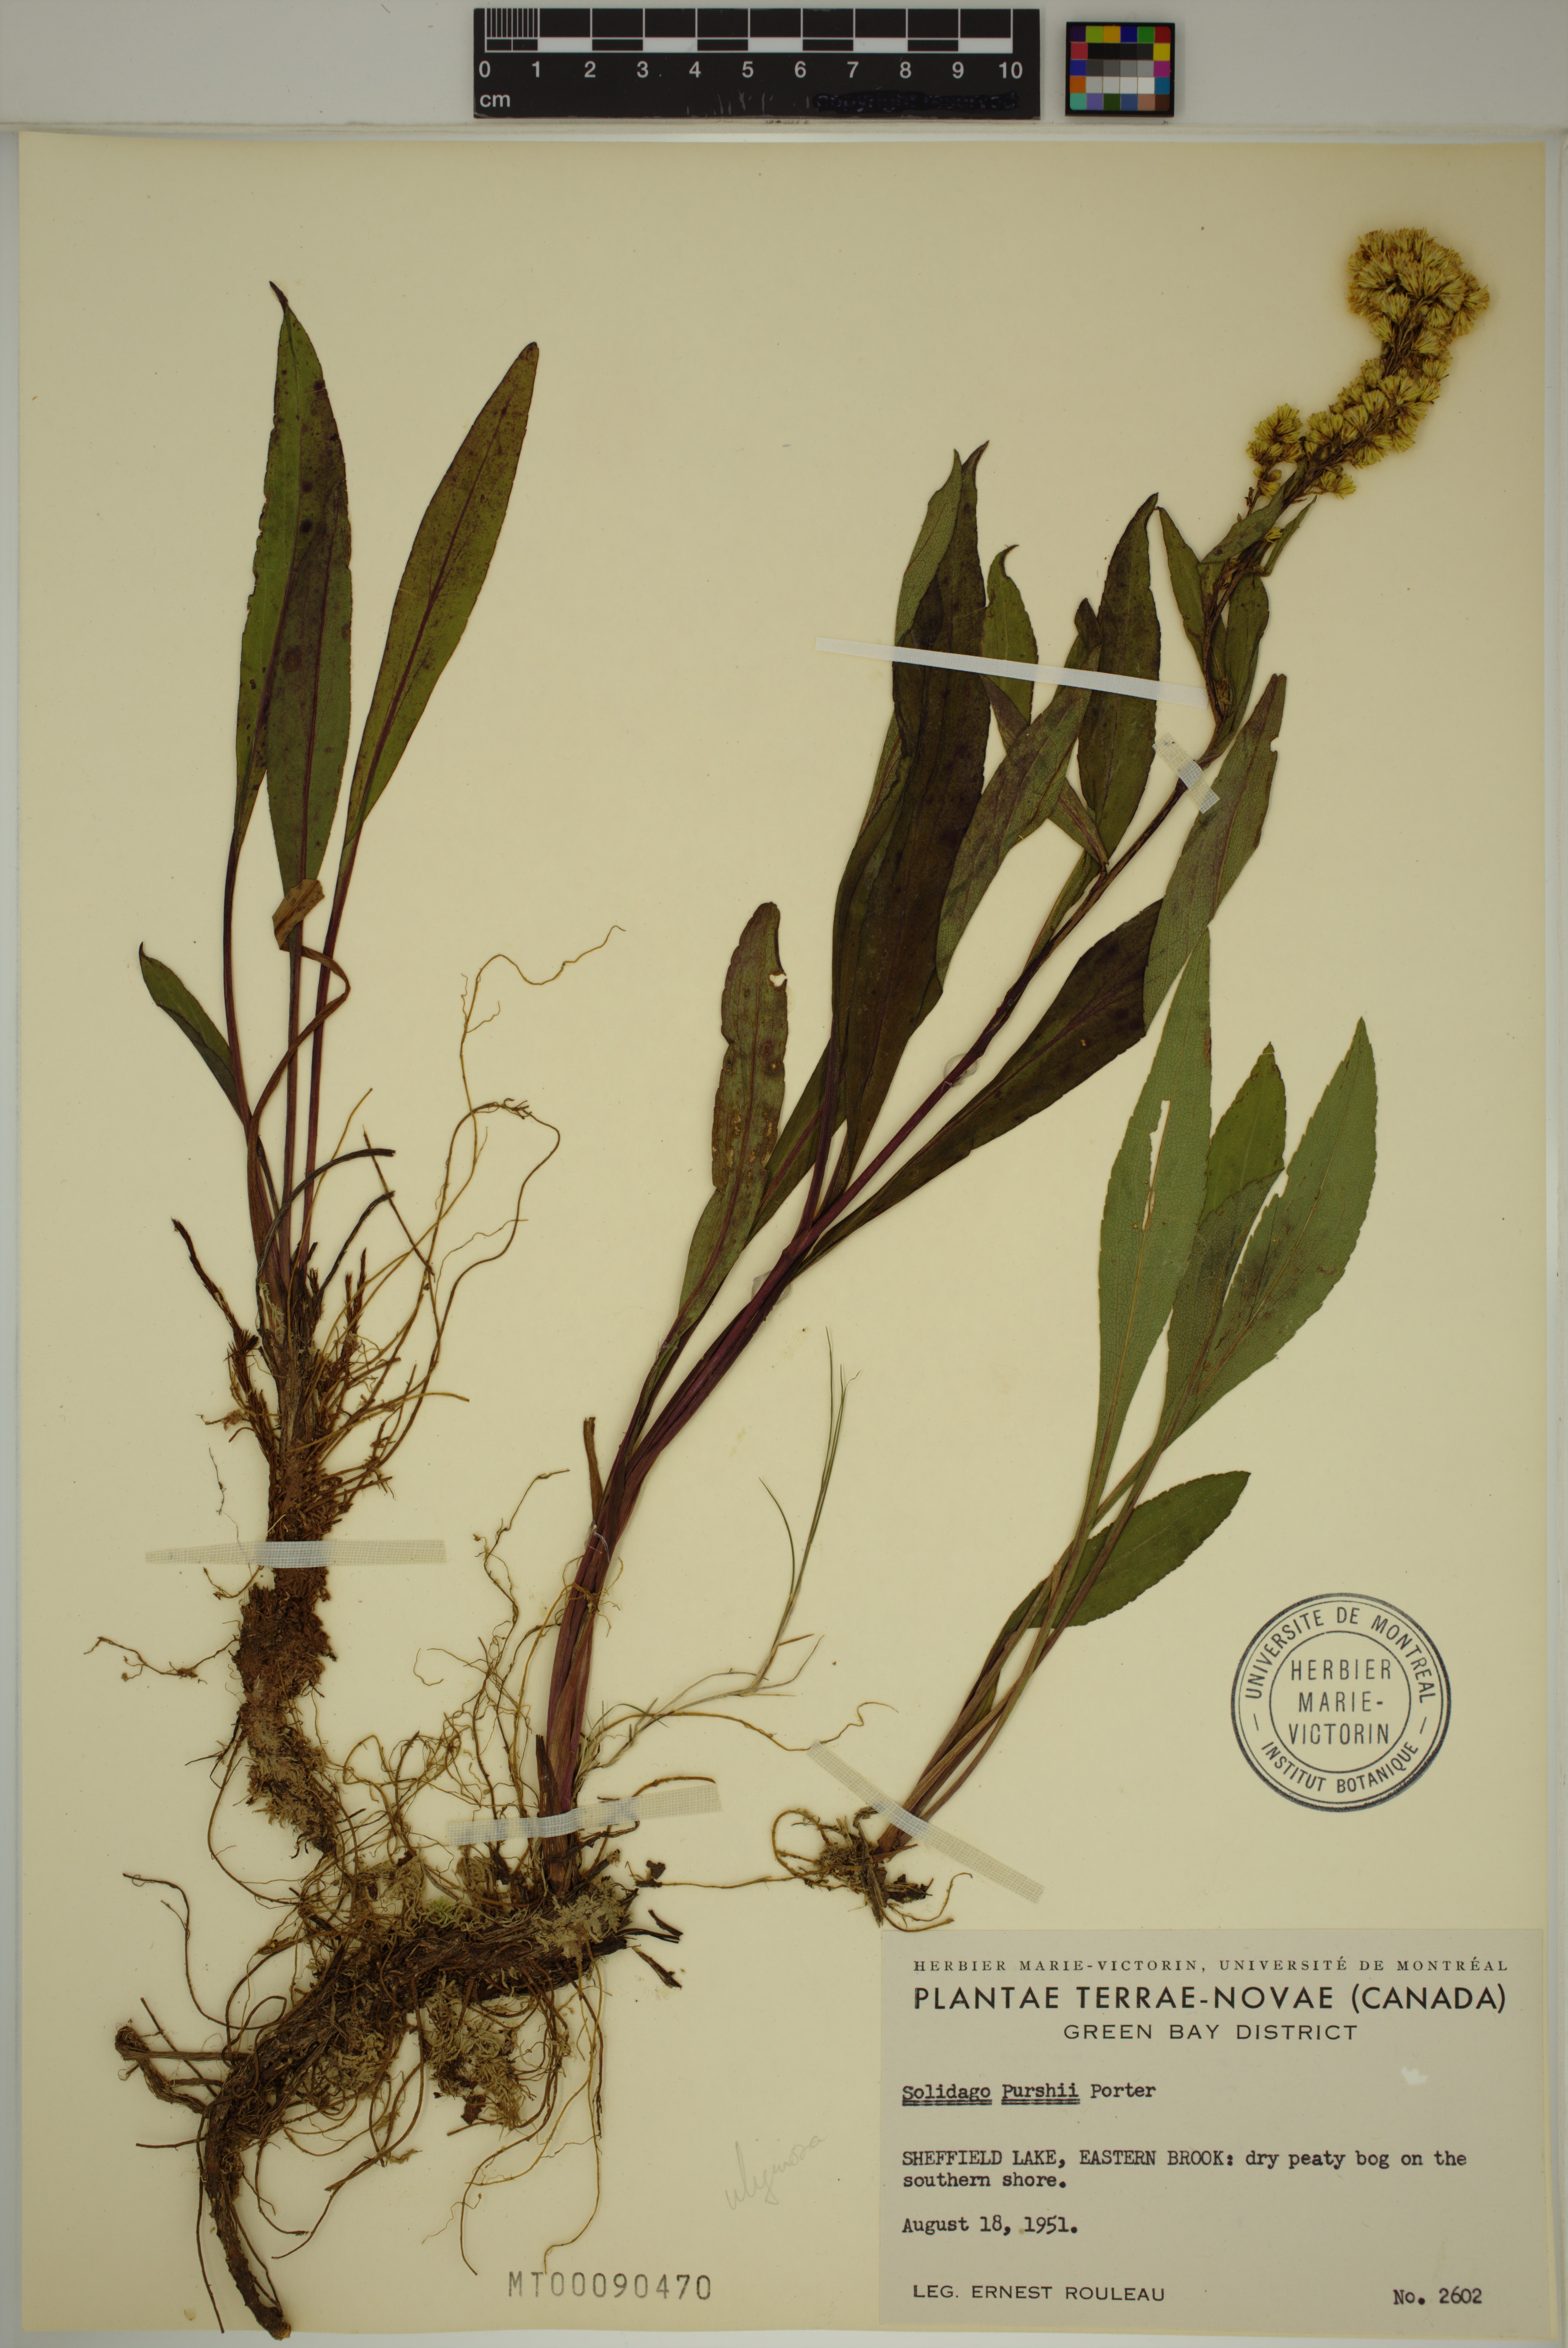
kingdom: Plantae
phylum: Tracheophyta
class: Magnoliopsida
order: Asterales
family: Asteraceae
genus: Solidago
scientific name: Solidago uliginosa
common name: Bog goldenrod
